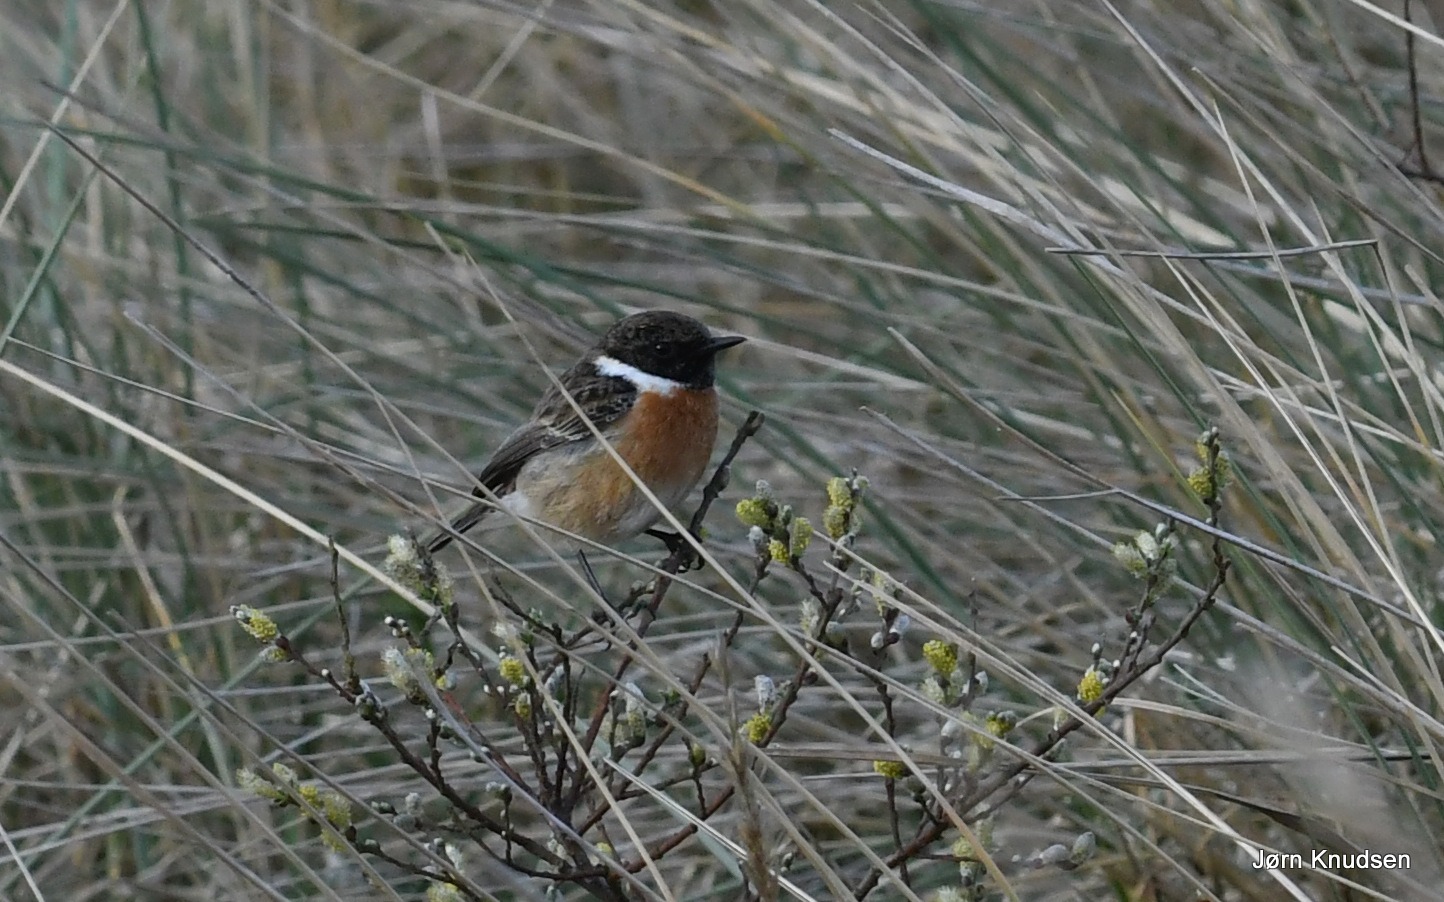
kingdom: Animalia
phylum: Chordata
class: Aves
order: Passeriformes
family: Muscicapidae
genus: Saxicola
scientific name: Saxicola rubicola
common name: Sortstrubet bynkefugl
